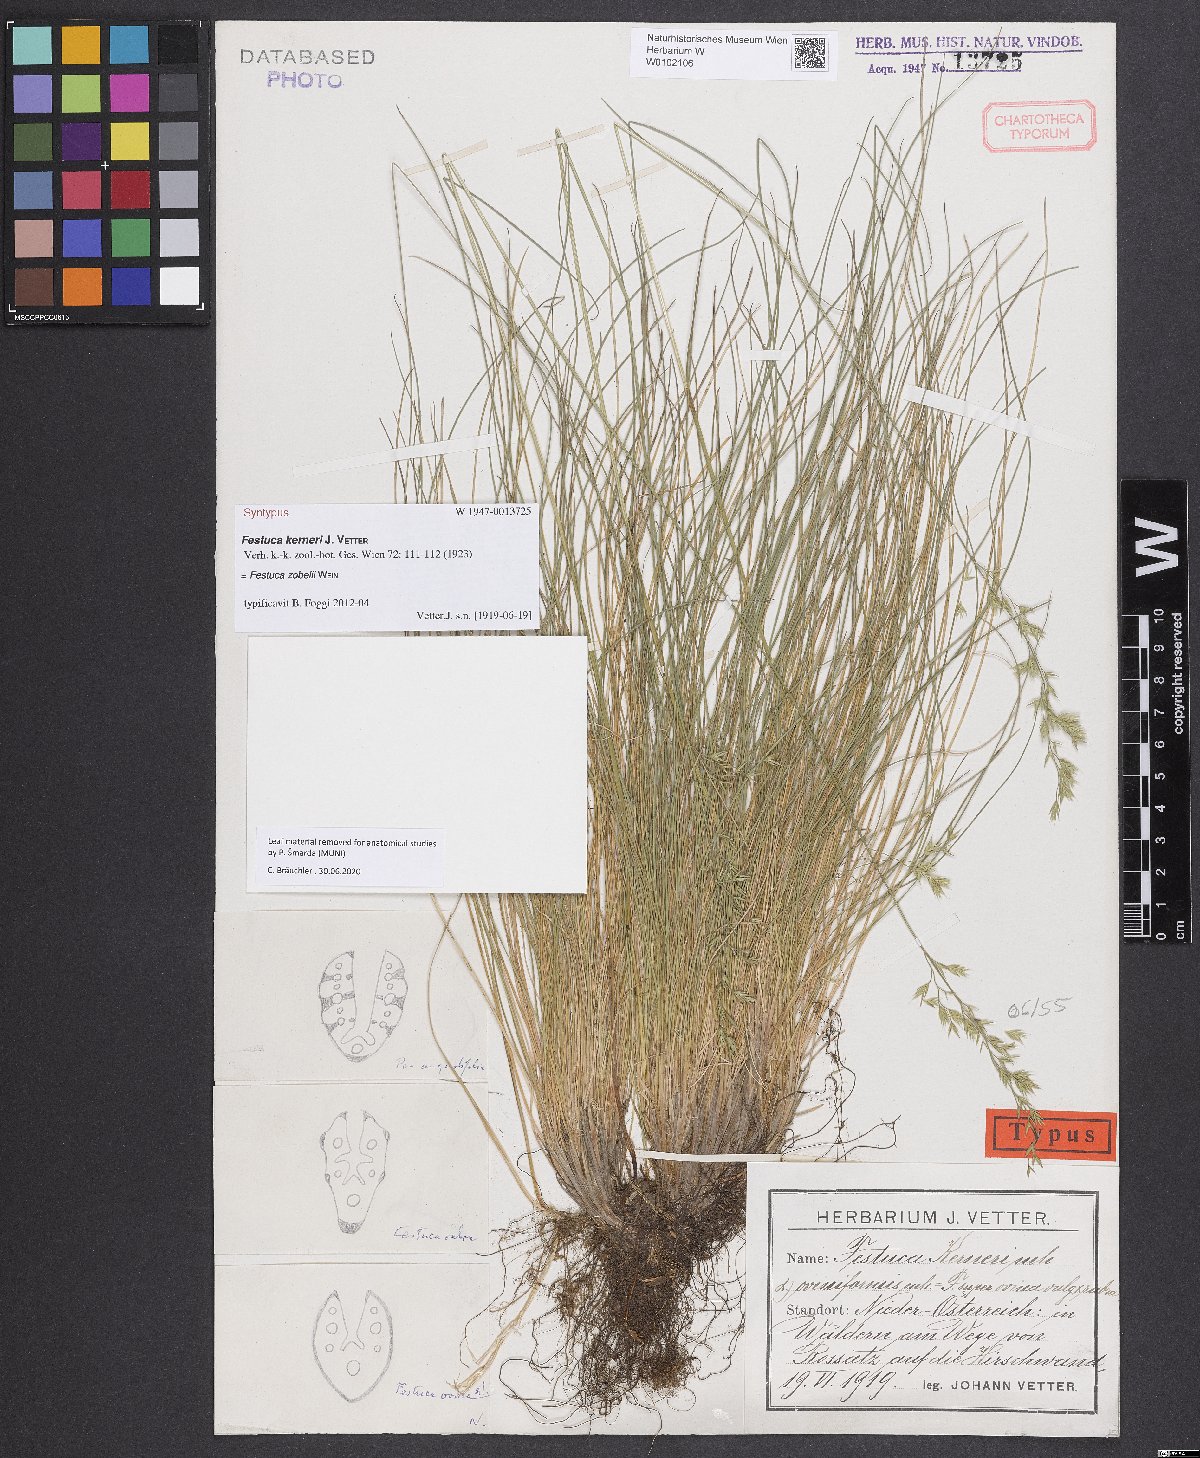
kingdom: Plantae
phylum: Tracheophyta
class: Liliopsida
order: Poales
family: Poaceae
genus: Festuca
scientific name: Festuca zobelii
